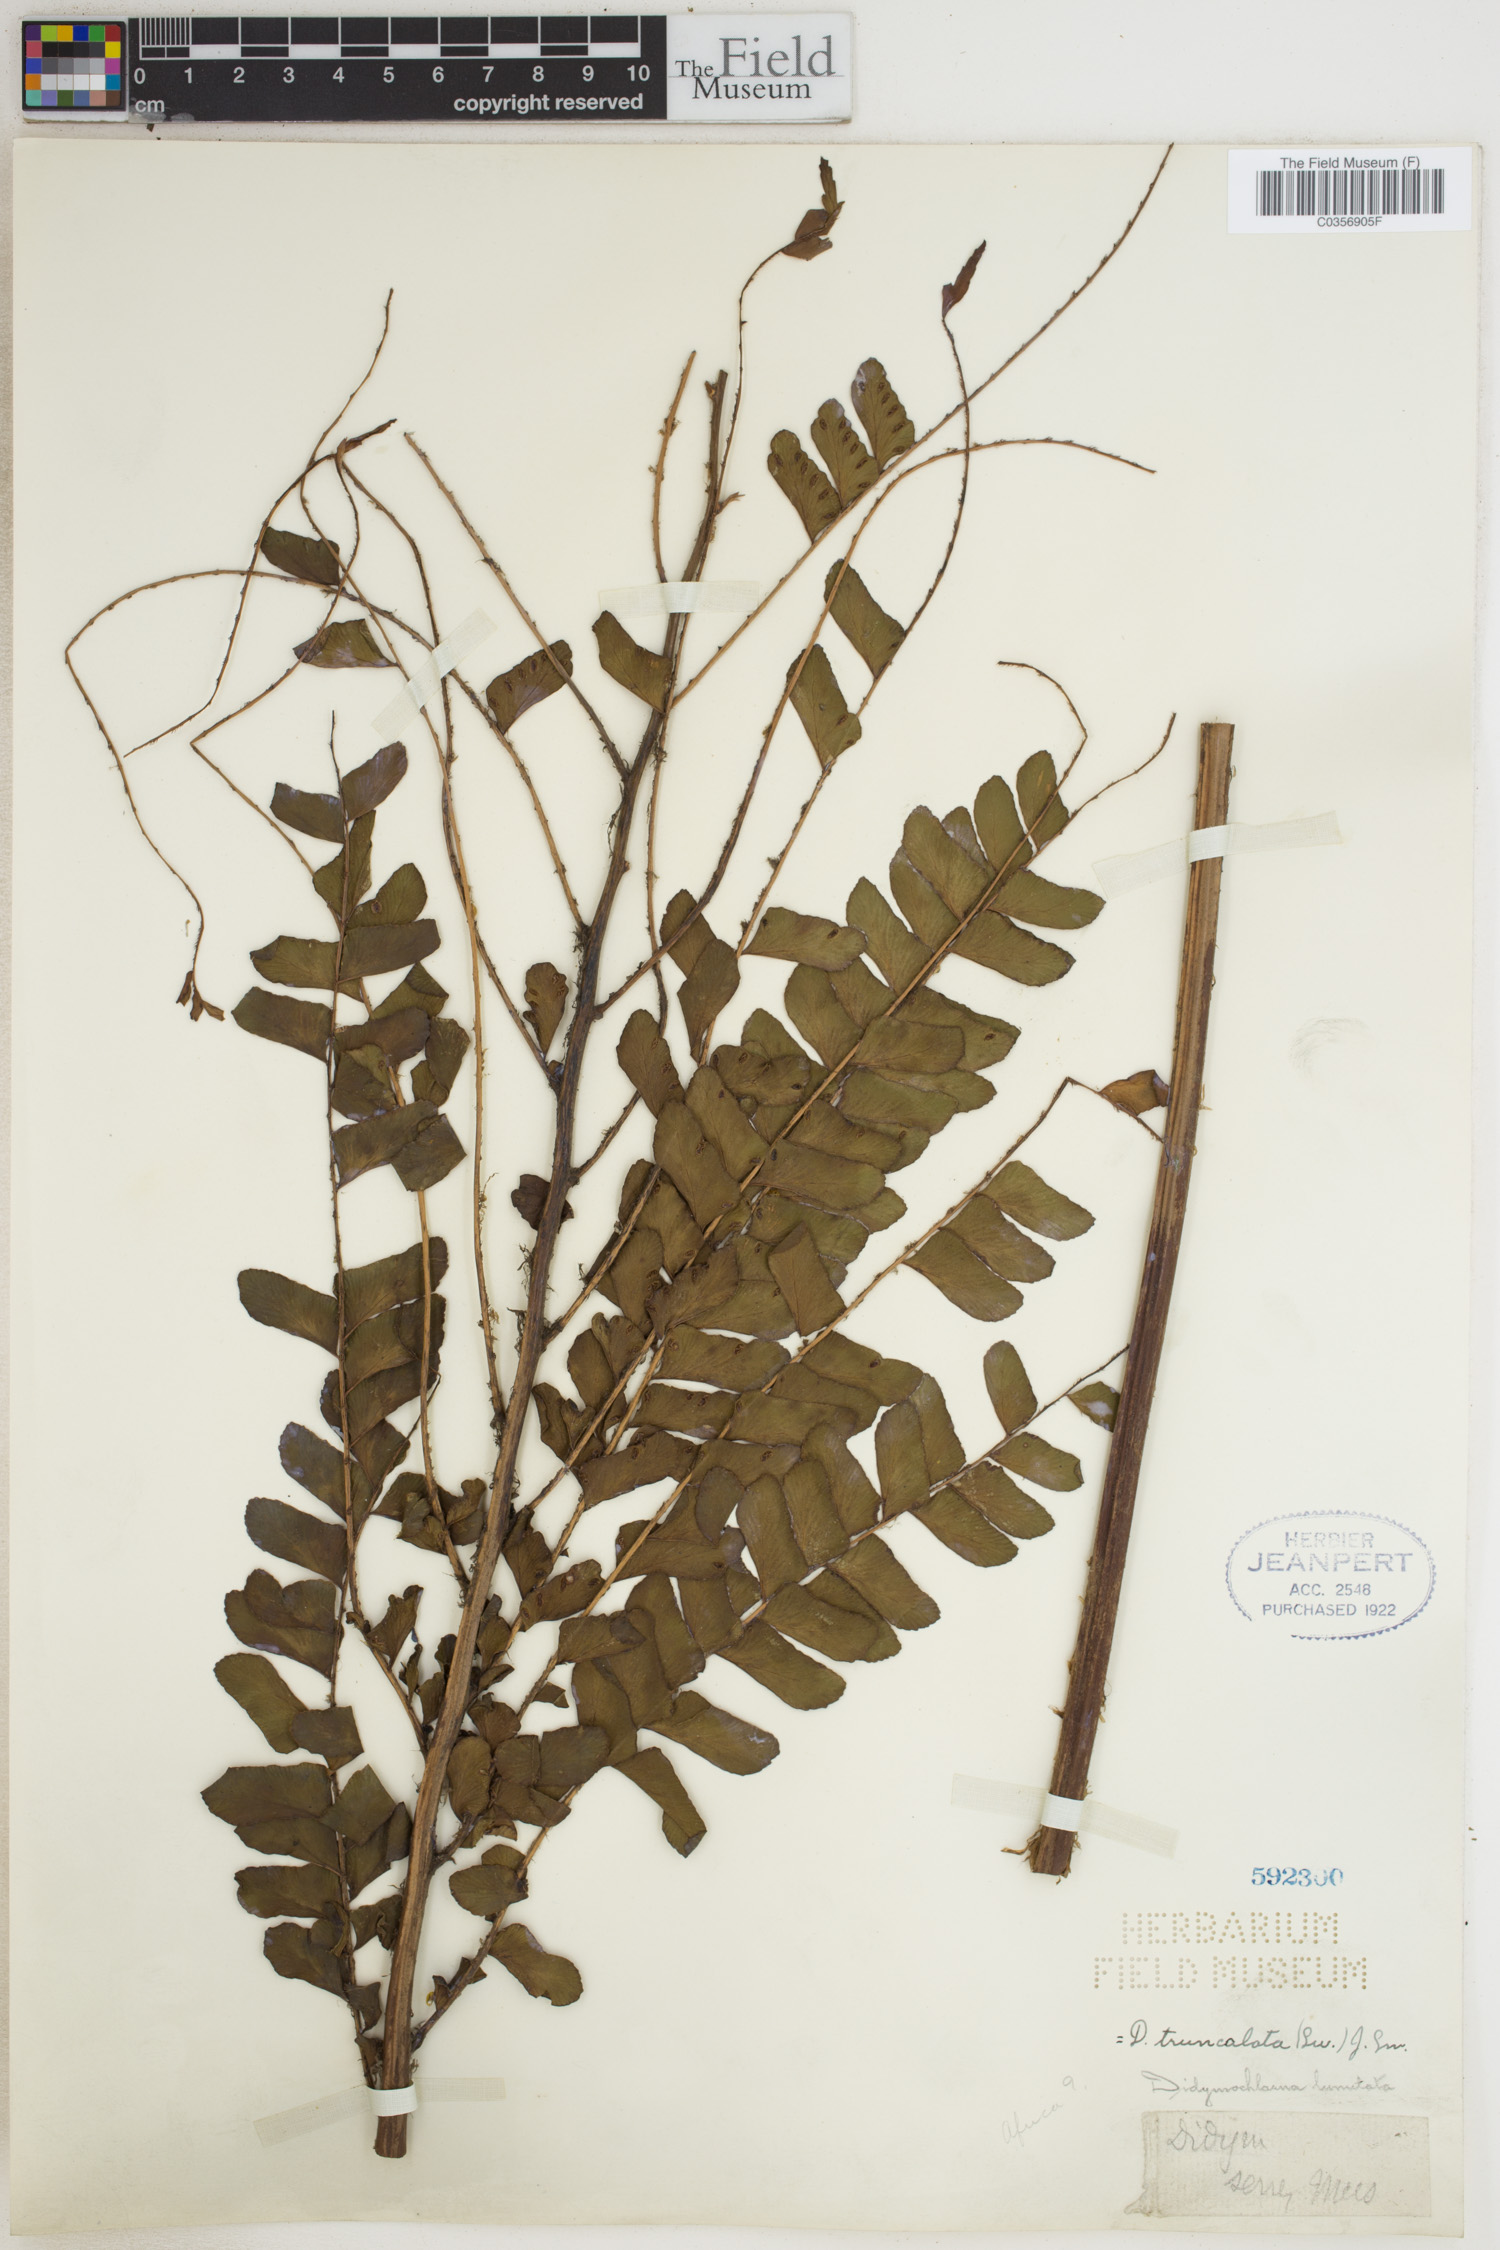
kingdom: Plantae
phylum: Tracheophyta
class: Polypodiopsida
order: Polypodiales
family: Didymochlaenaceae
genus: Didymochlaena
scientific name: Didymochlaena truncatula
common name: Mahogany fern
